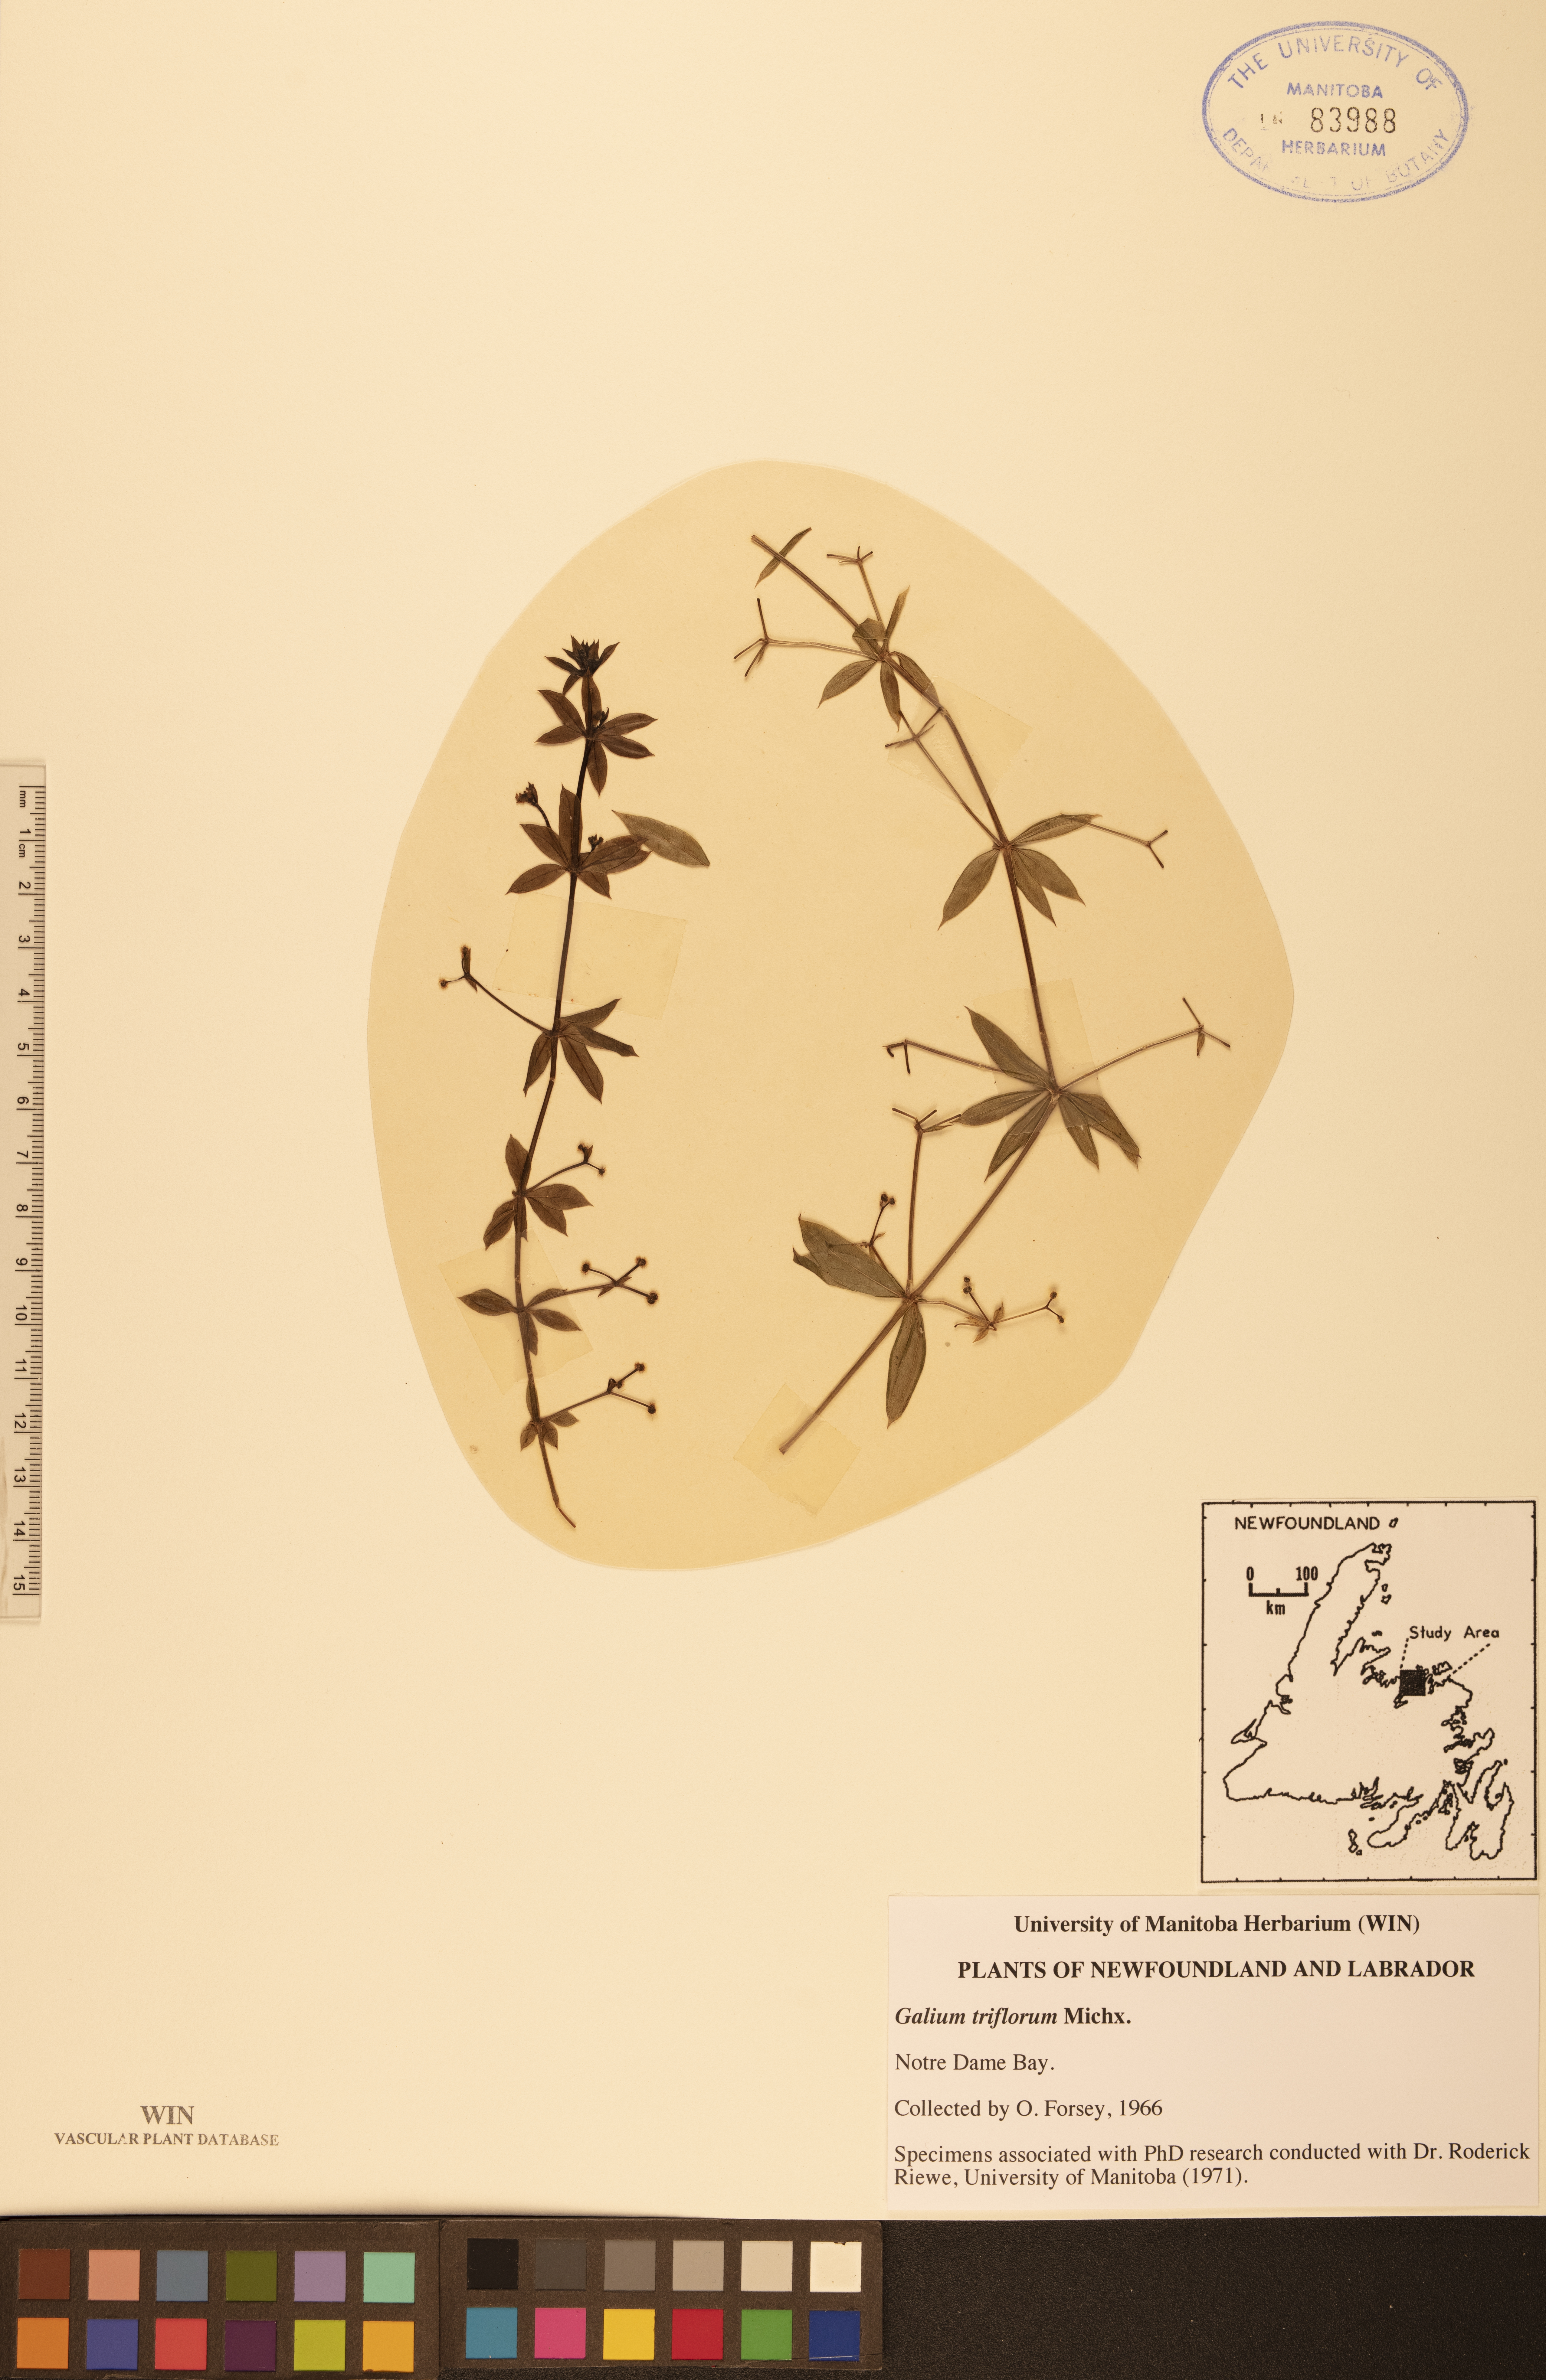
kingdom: Plantae
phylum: Tracheophyta
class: Magnoliopsida
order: Gentianales
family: Rubiaceae
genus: Galium
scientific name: Galium triflorum
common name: Fragrant bedstraw
